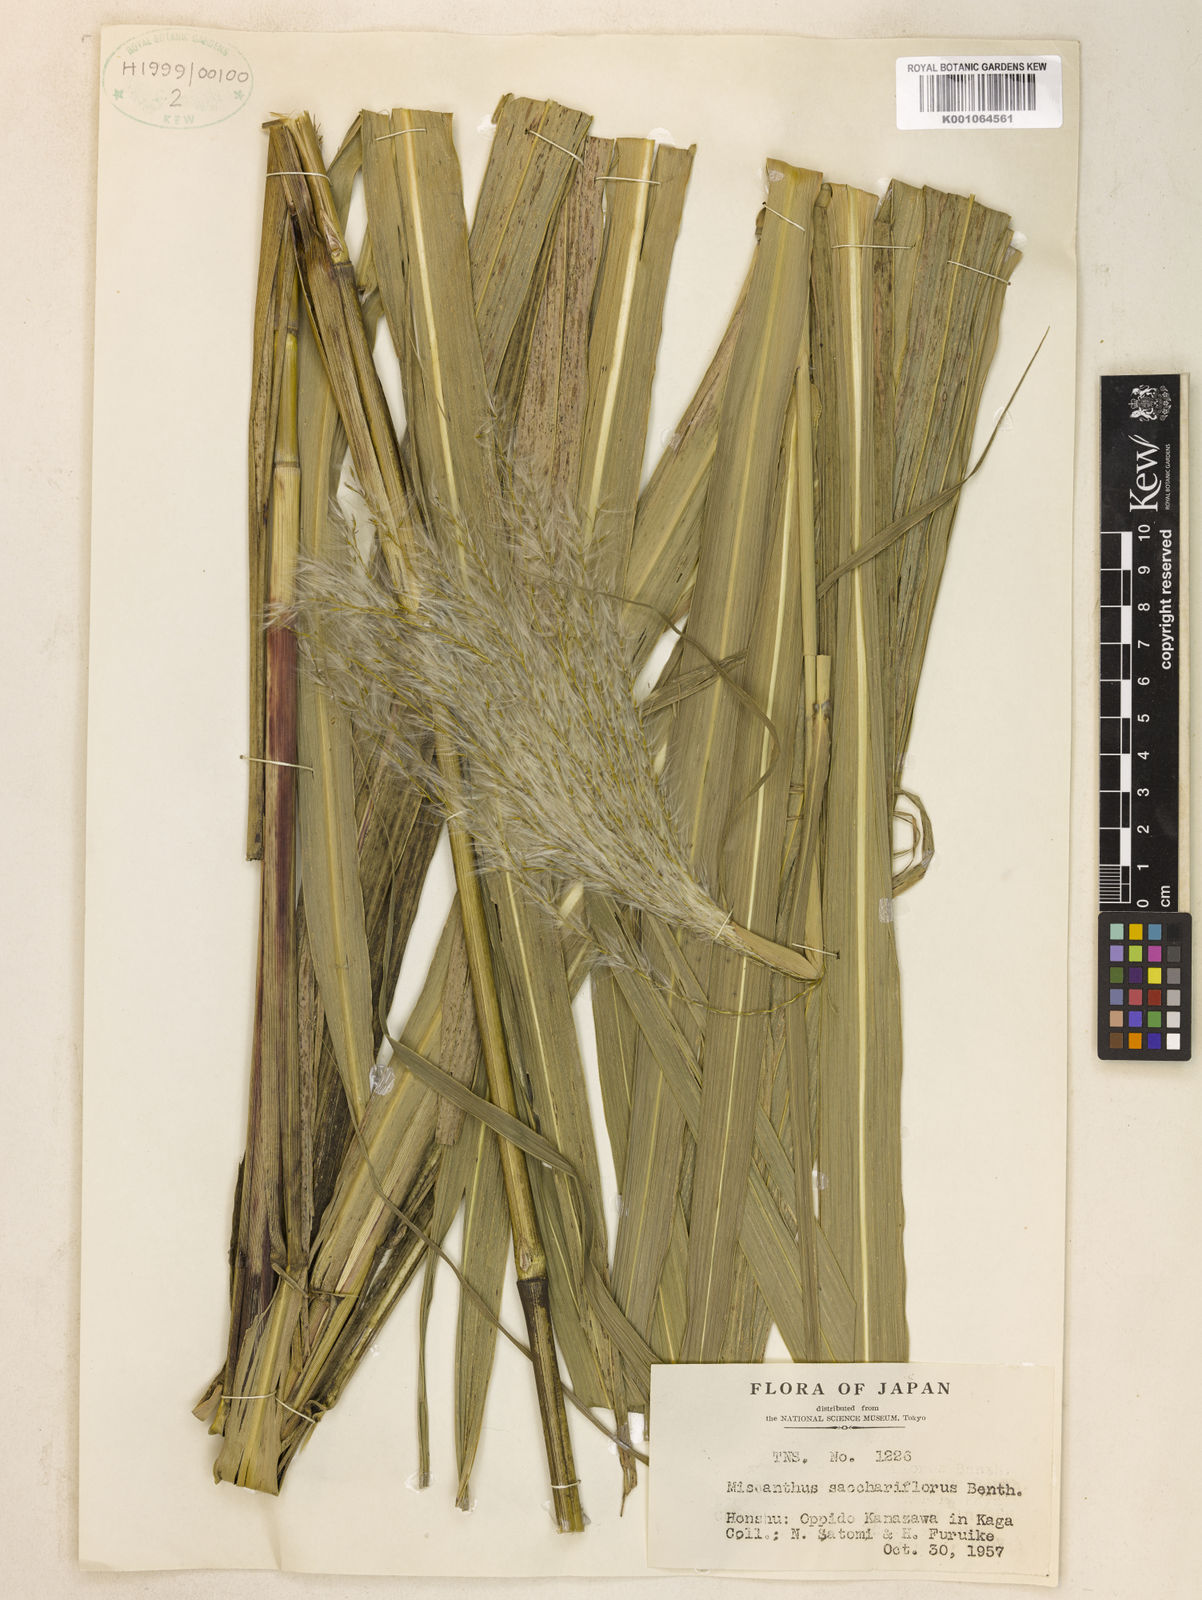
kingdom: Plantae
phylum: Tracheophyta
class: Liliopsida
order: Poales
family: Poaceae
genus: Miscanthus
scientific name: Miscanthus
